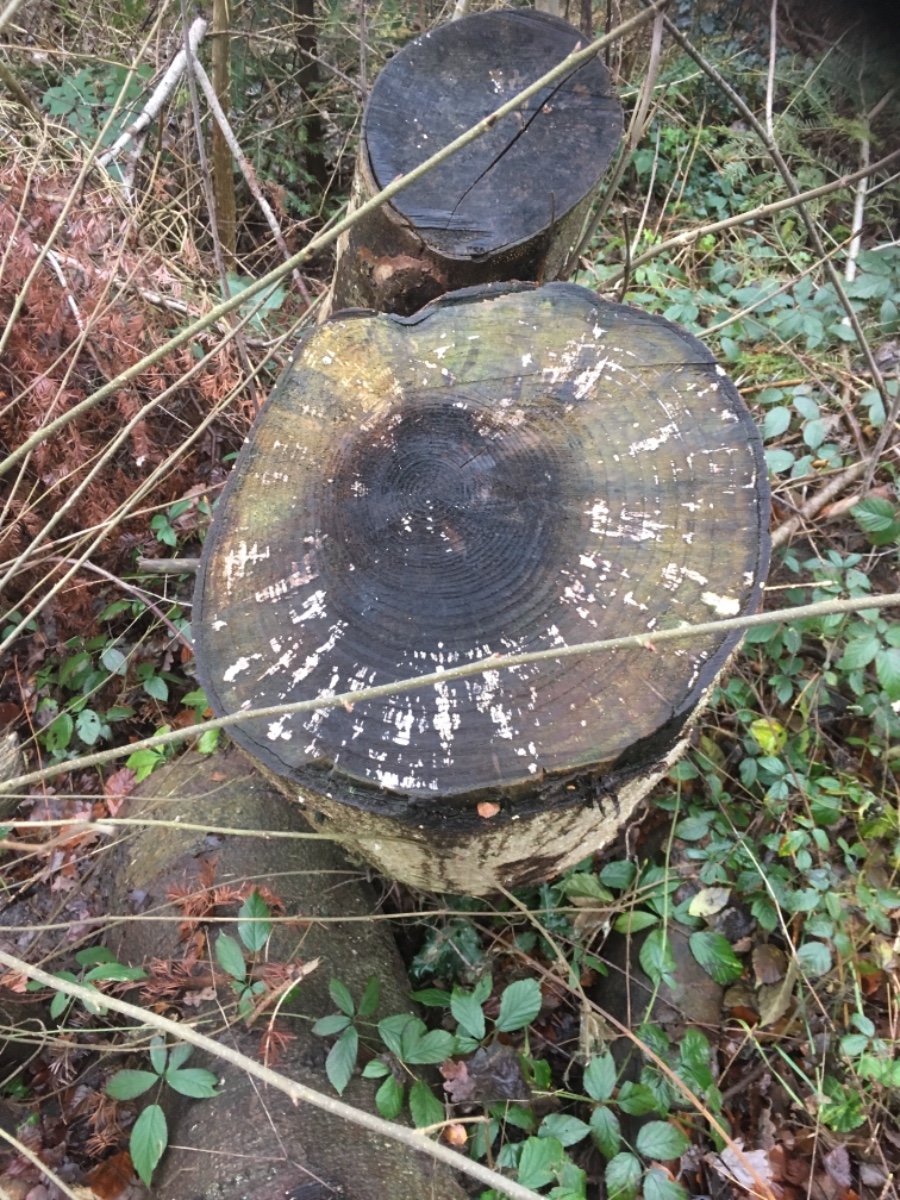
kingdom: Fungi
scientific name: Fungi
